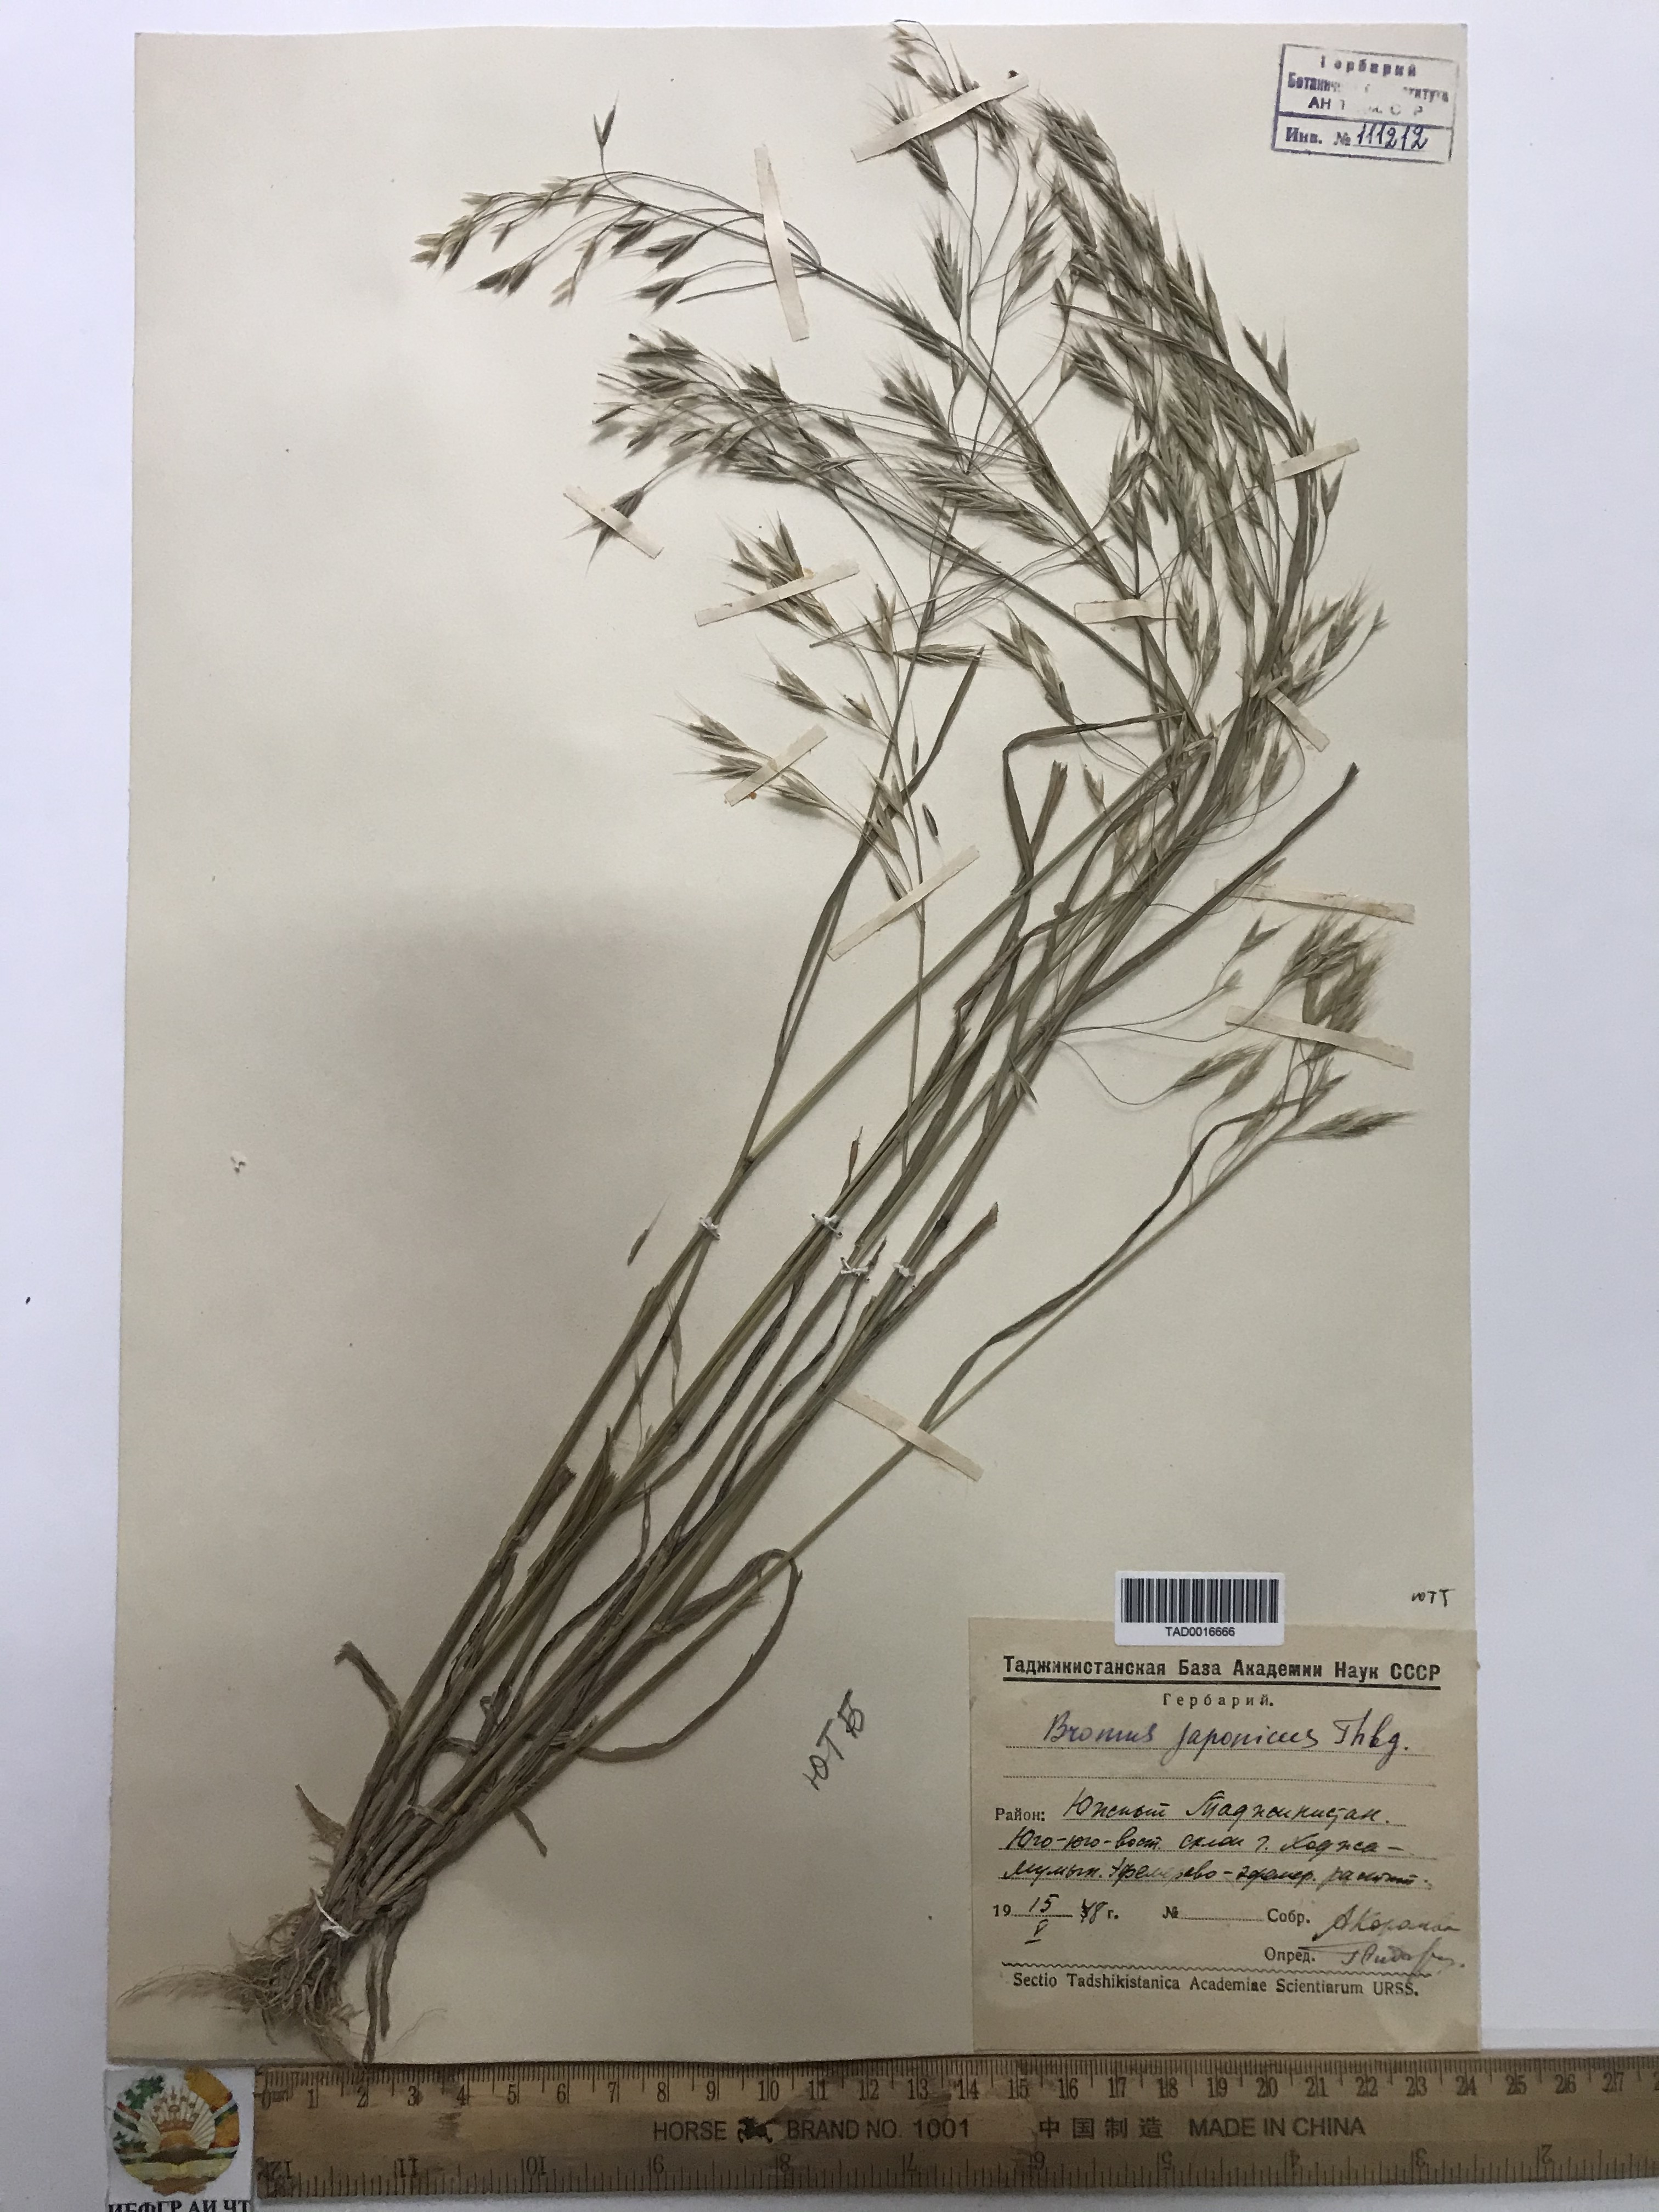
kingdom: Plantae
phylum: Tracheophyta
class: Liliopsida
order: Poales
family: Poaceae
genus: Bromus
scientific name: Bromus japonicus
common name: Japanese brome
